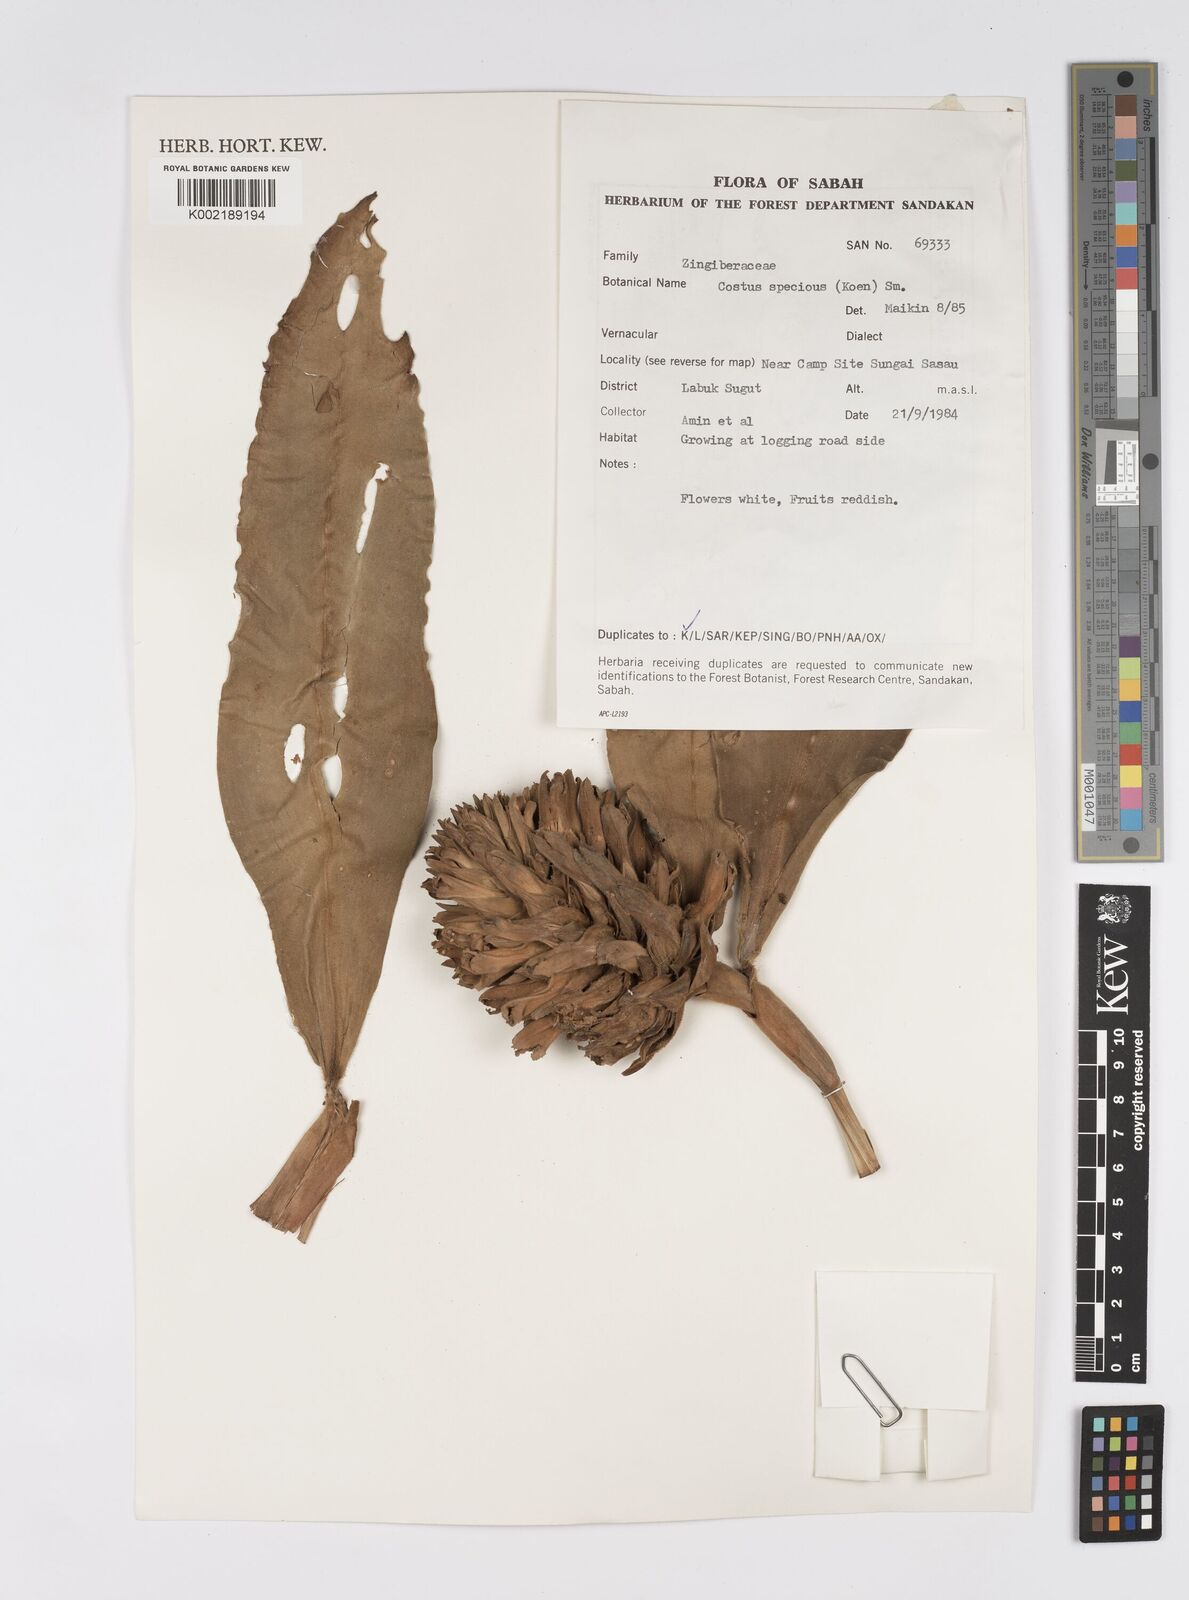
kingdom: Plantae
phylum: Tracheophyta
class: Liliopsida
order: Zingiberales
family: Costaceae
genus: Hellenia
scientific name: Hellenia speciosa
